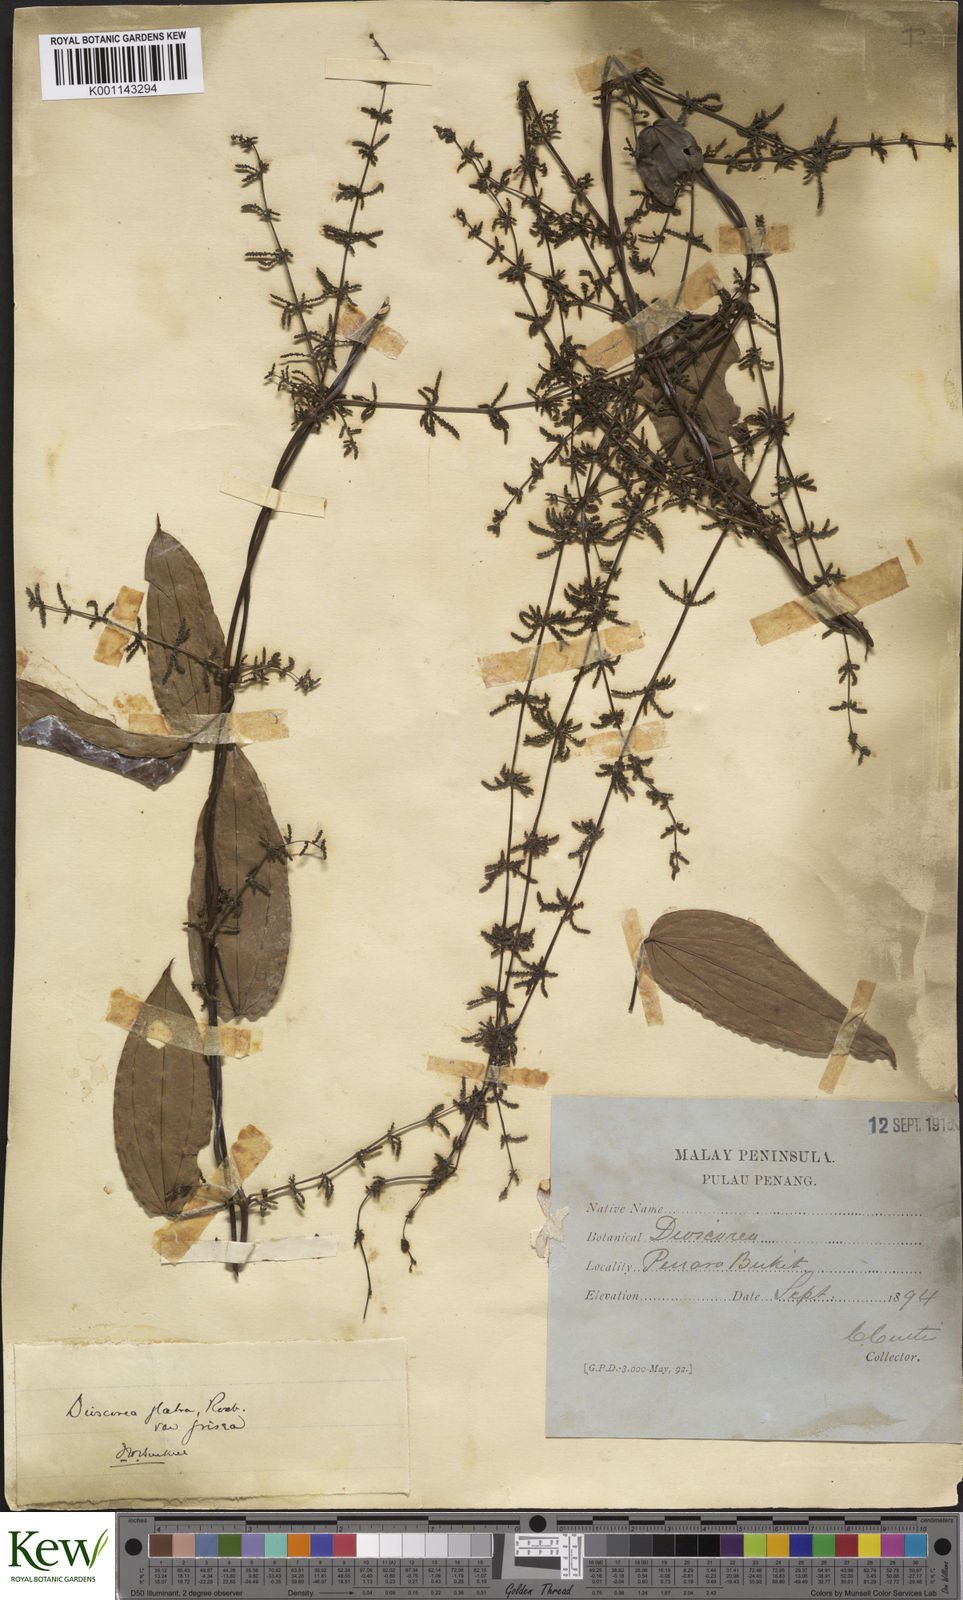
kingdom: Plantae
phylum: Tracheophyta
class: Liliopsida
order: Dioscoreales
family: Dioscoreaceae
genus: Dioscorea
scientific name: Dioscorea glabra
